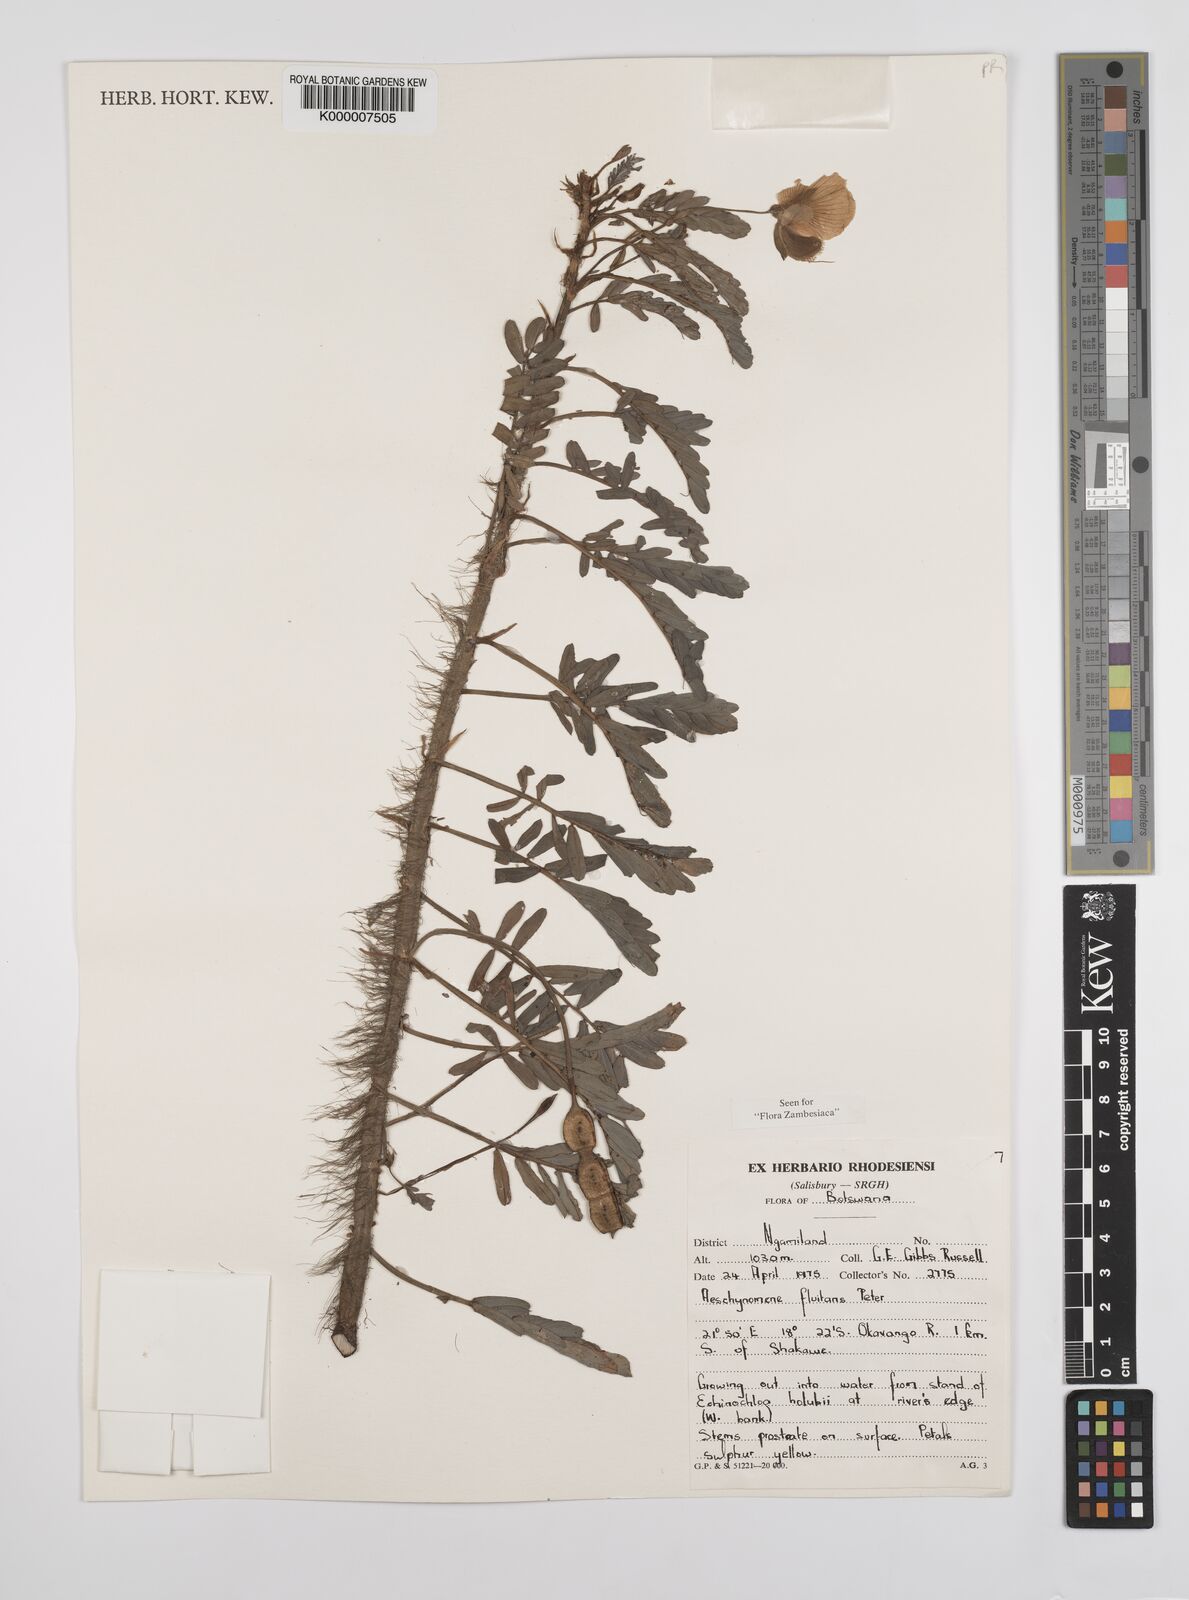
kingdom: Plantae
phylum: Tracheophyta
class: Magnoliopsida
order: Fabales
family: Fabaceae
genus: Aeschynomene
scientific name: Aeschynomene fluitans
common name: Giant water sensitive plant
